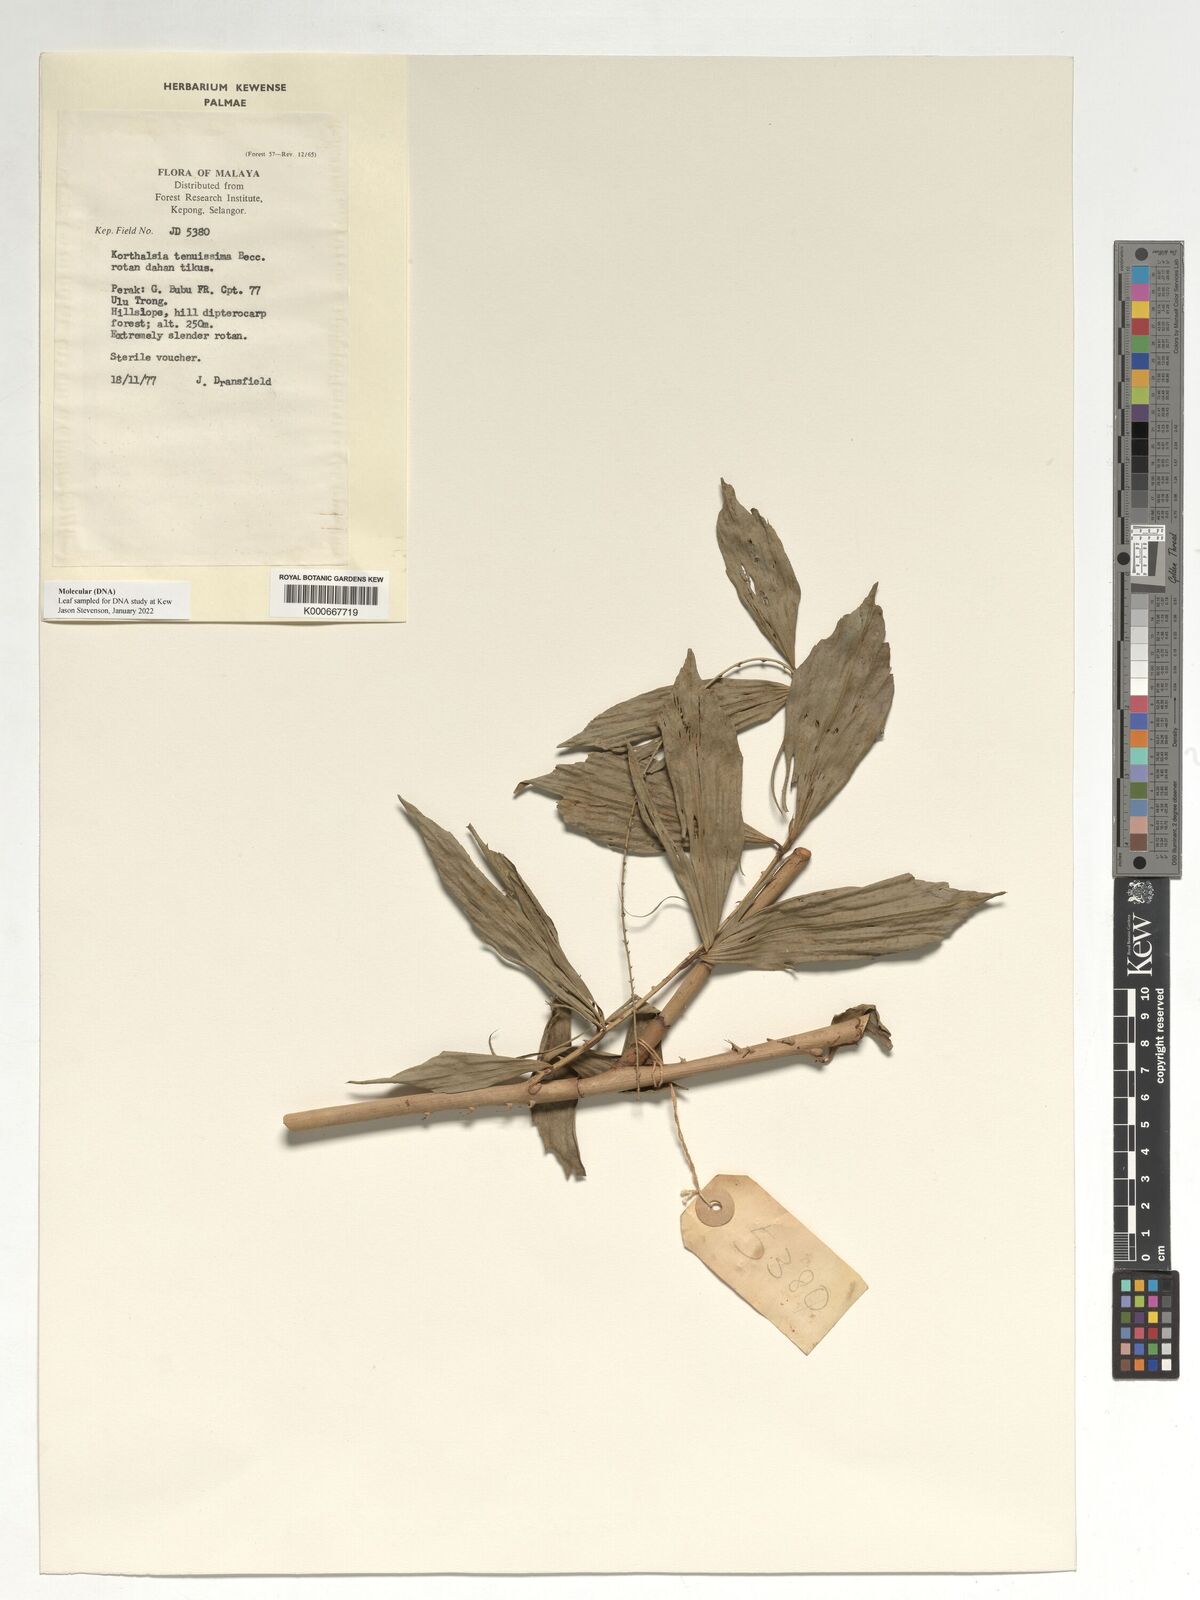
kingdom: Plantae
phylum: Tracheophyta
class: Liliopsida
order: Arecales
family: Arecaceae
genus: Korthalsia
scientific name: Korthalsia tenuissima
